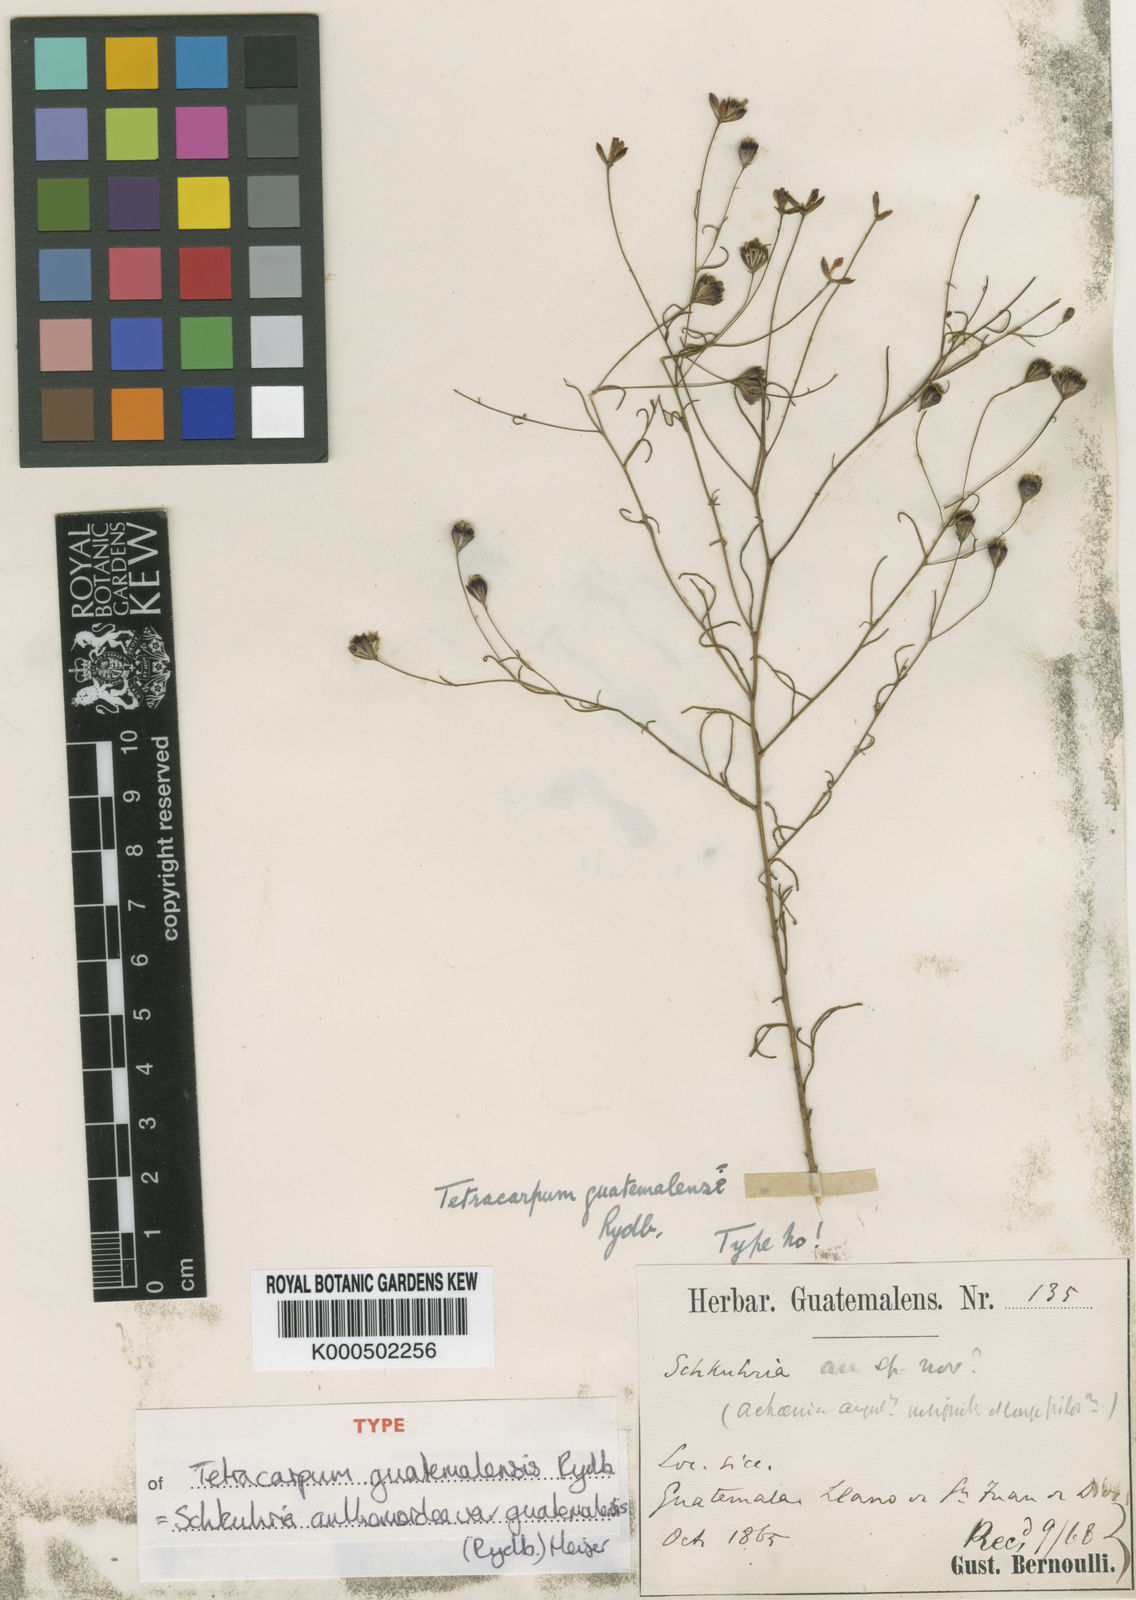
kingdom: Plantae
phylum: Tracheophyta
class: Magnoliopsida
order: Asterales
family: Asteraceae
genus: Schkuhria
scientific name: Schkuhria pinnata
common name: Dwarf marigold
